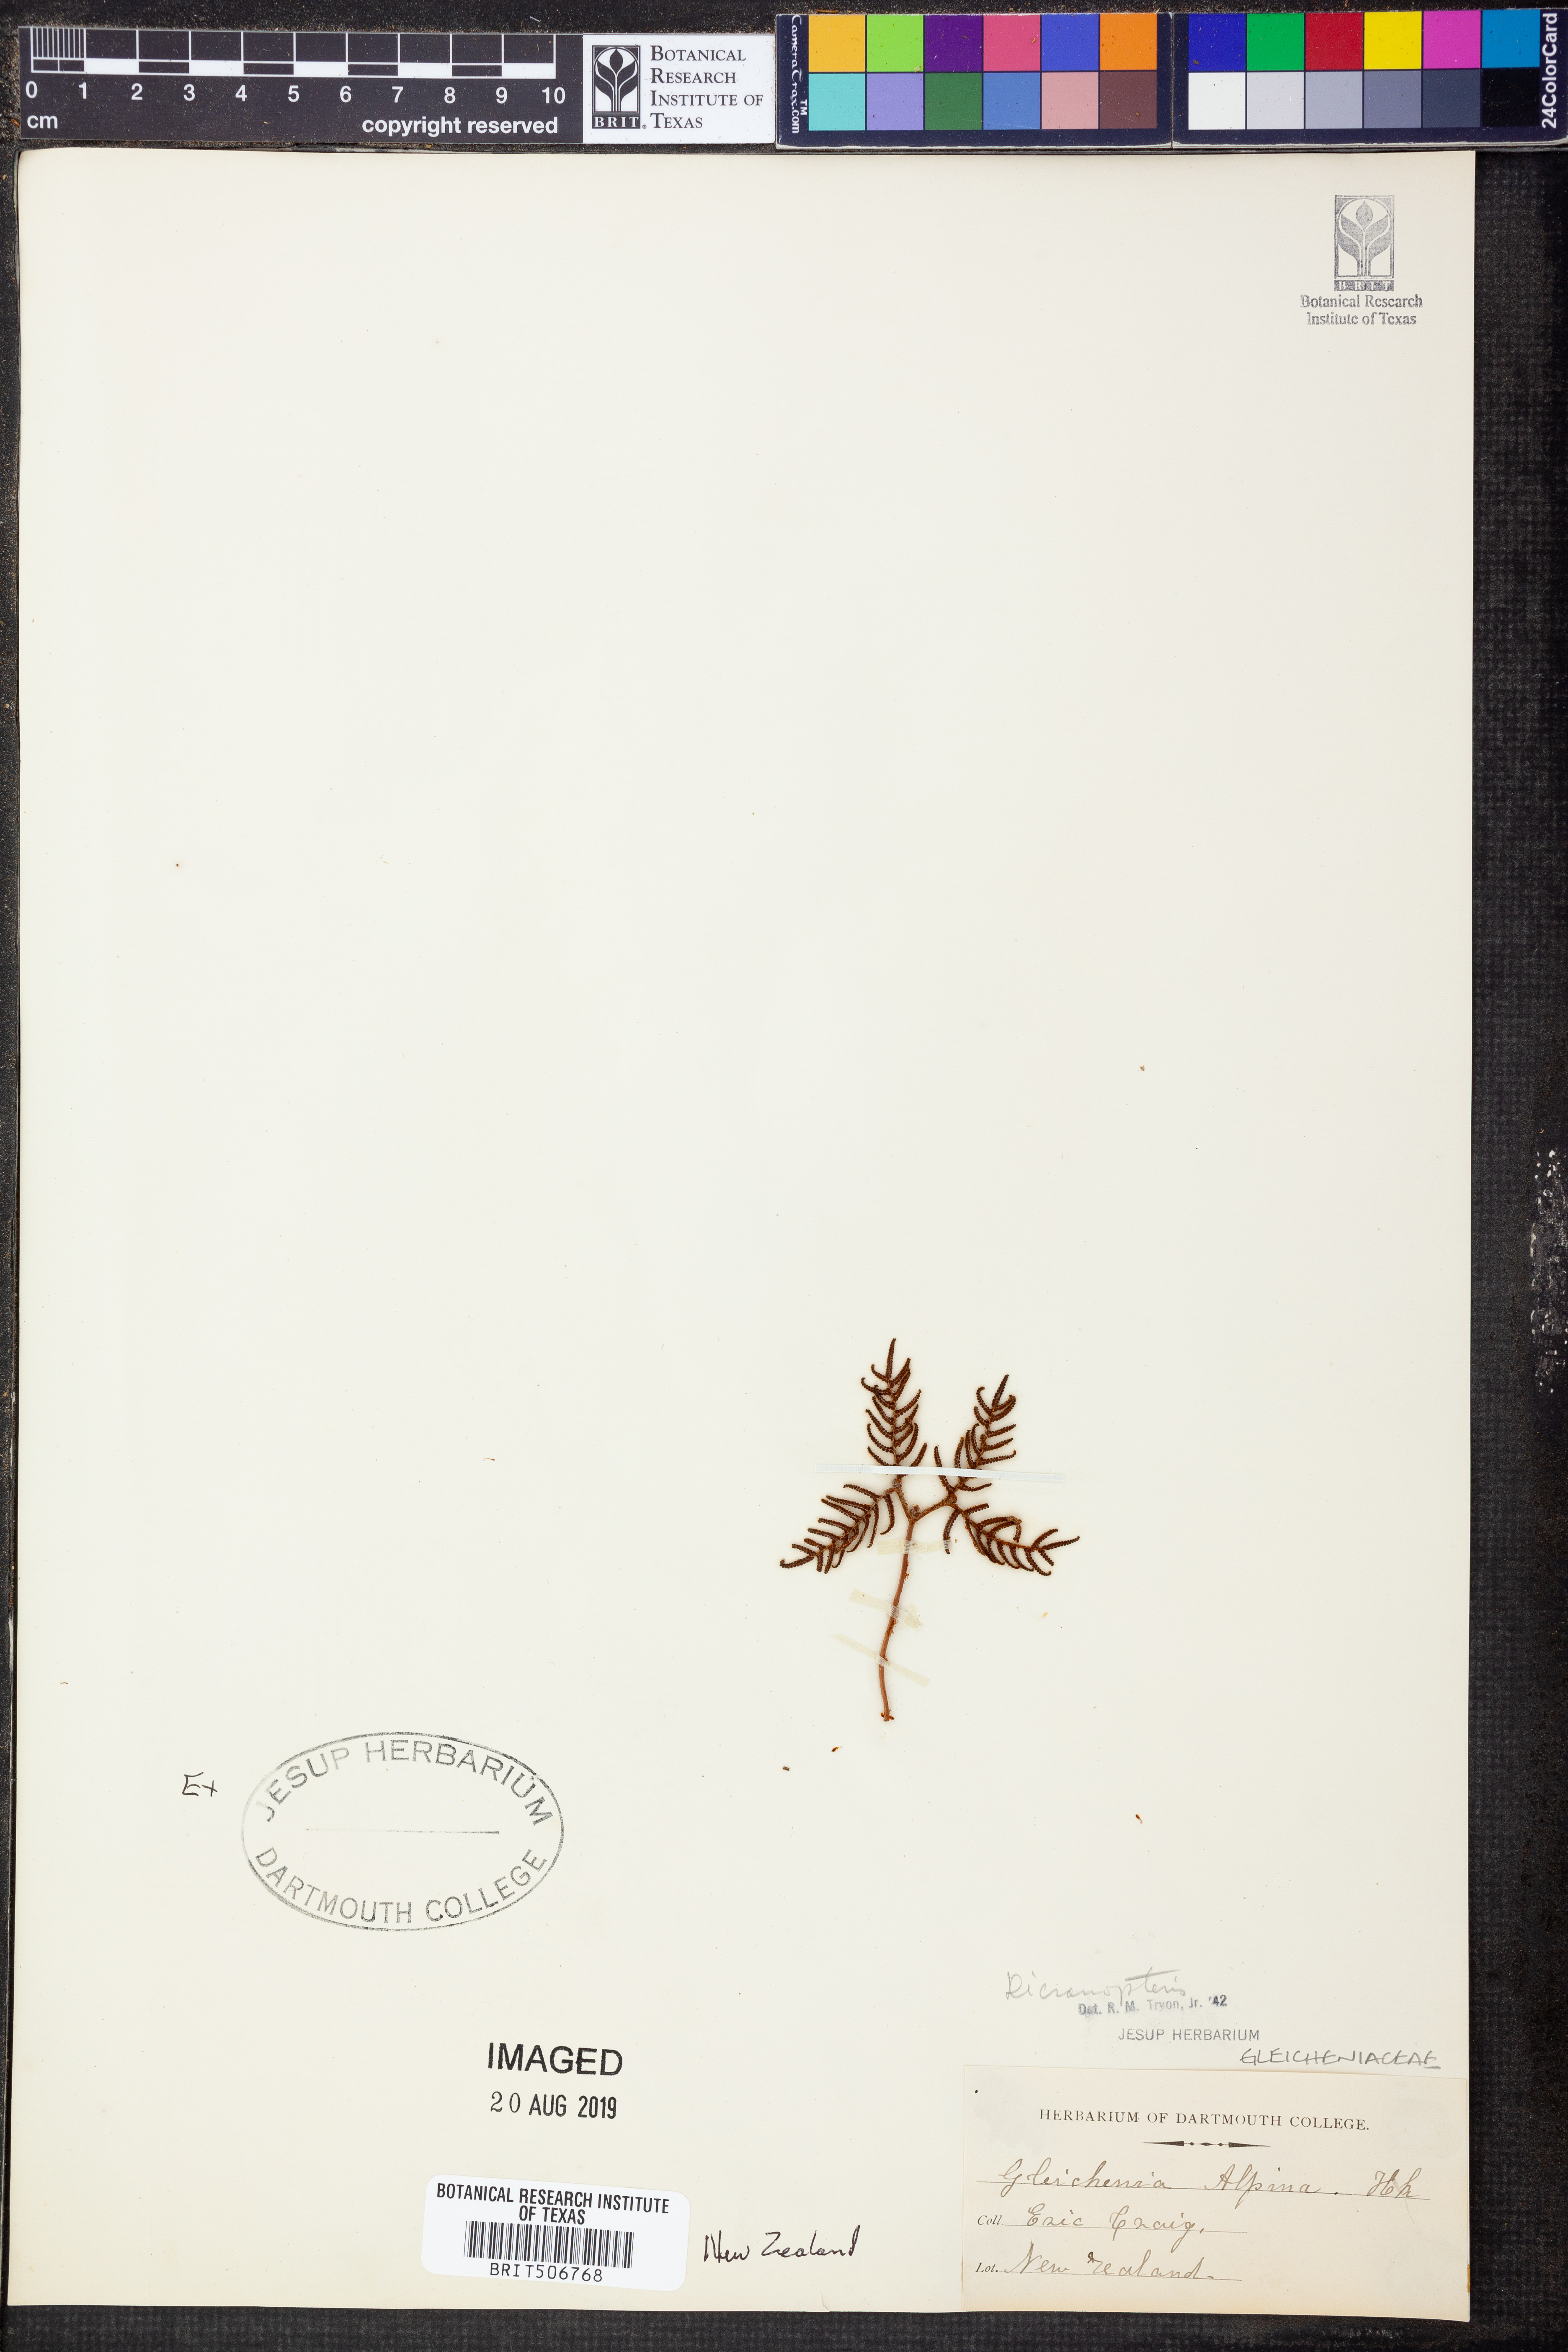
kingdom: Plantae
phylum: Tracheophyta
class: Polypodiopsida
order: Gleicheniales
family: Gleicheniaceae
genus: Dicranopteris
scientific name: Dicranopteris
